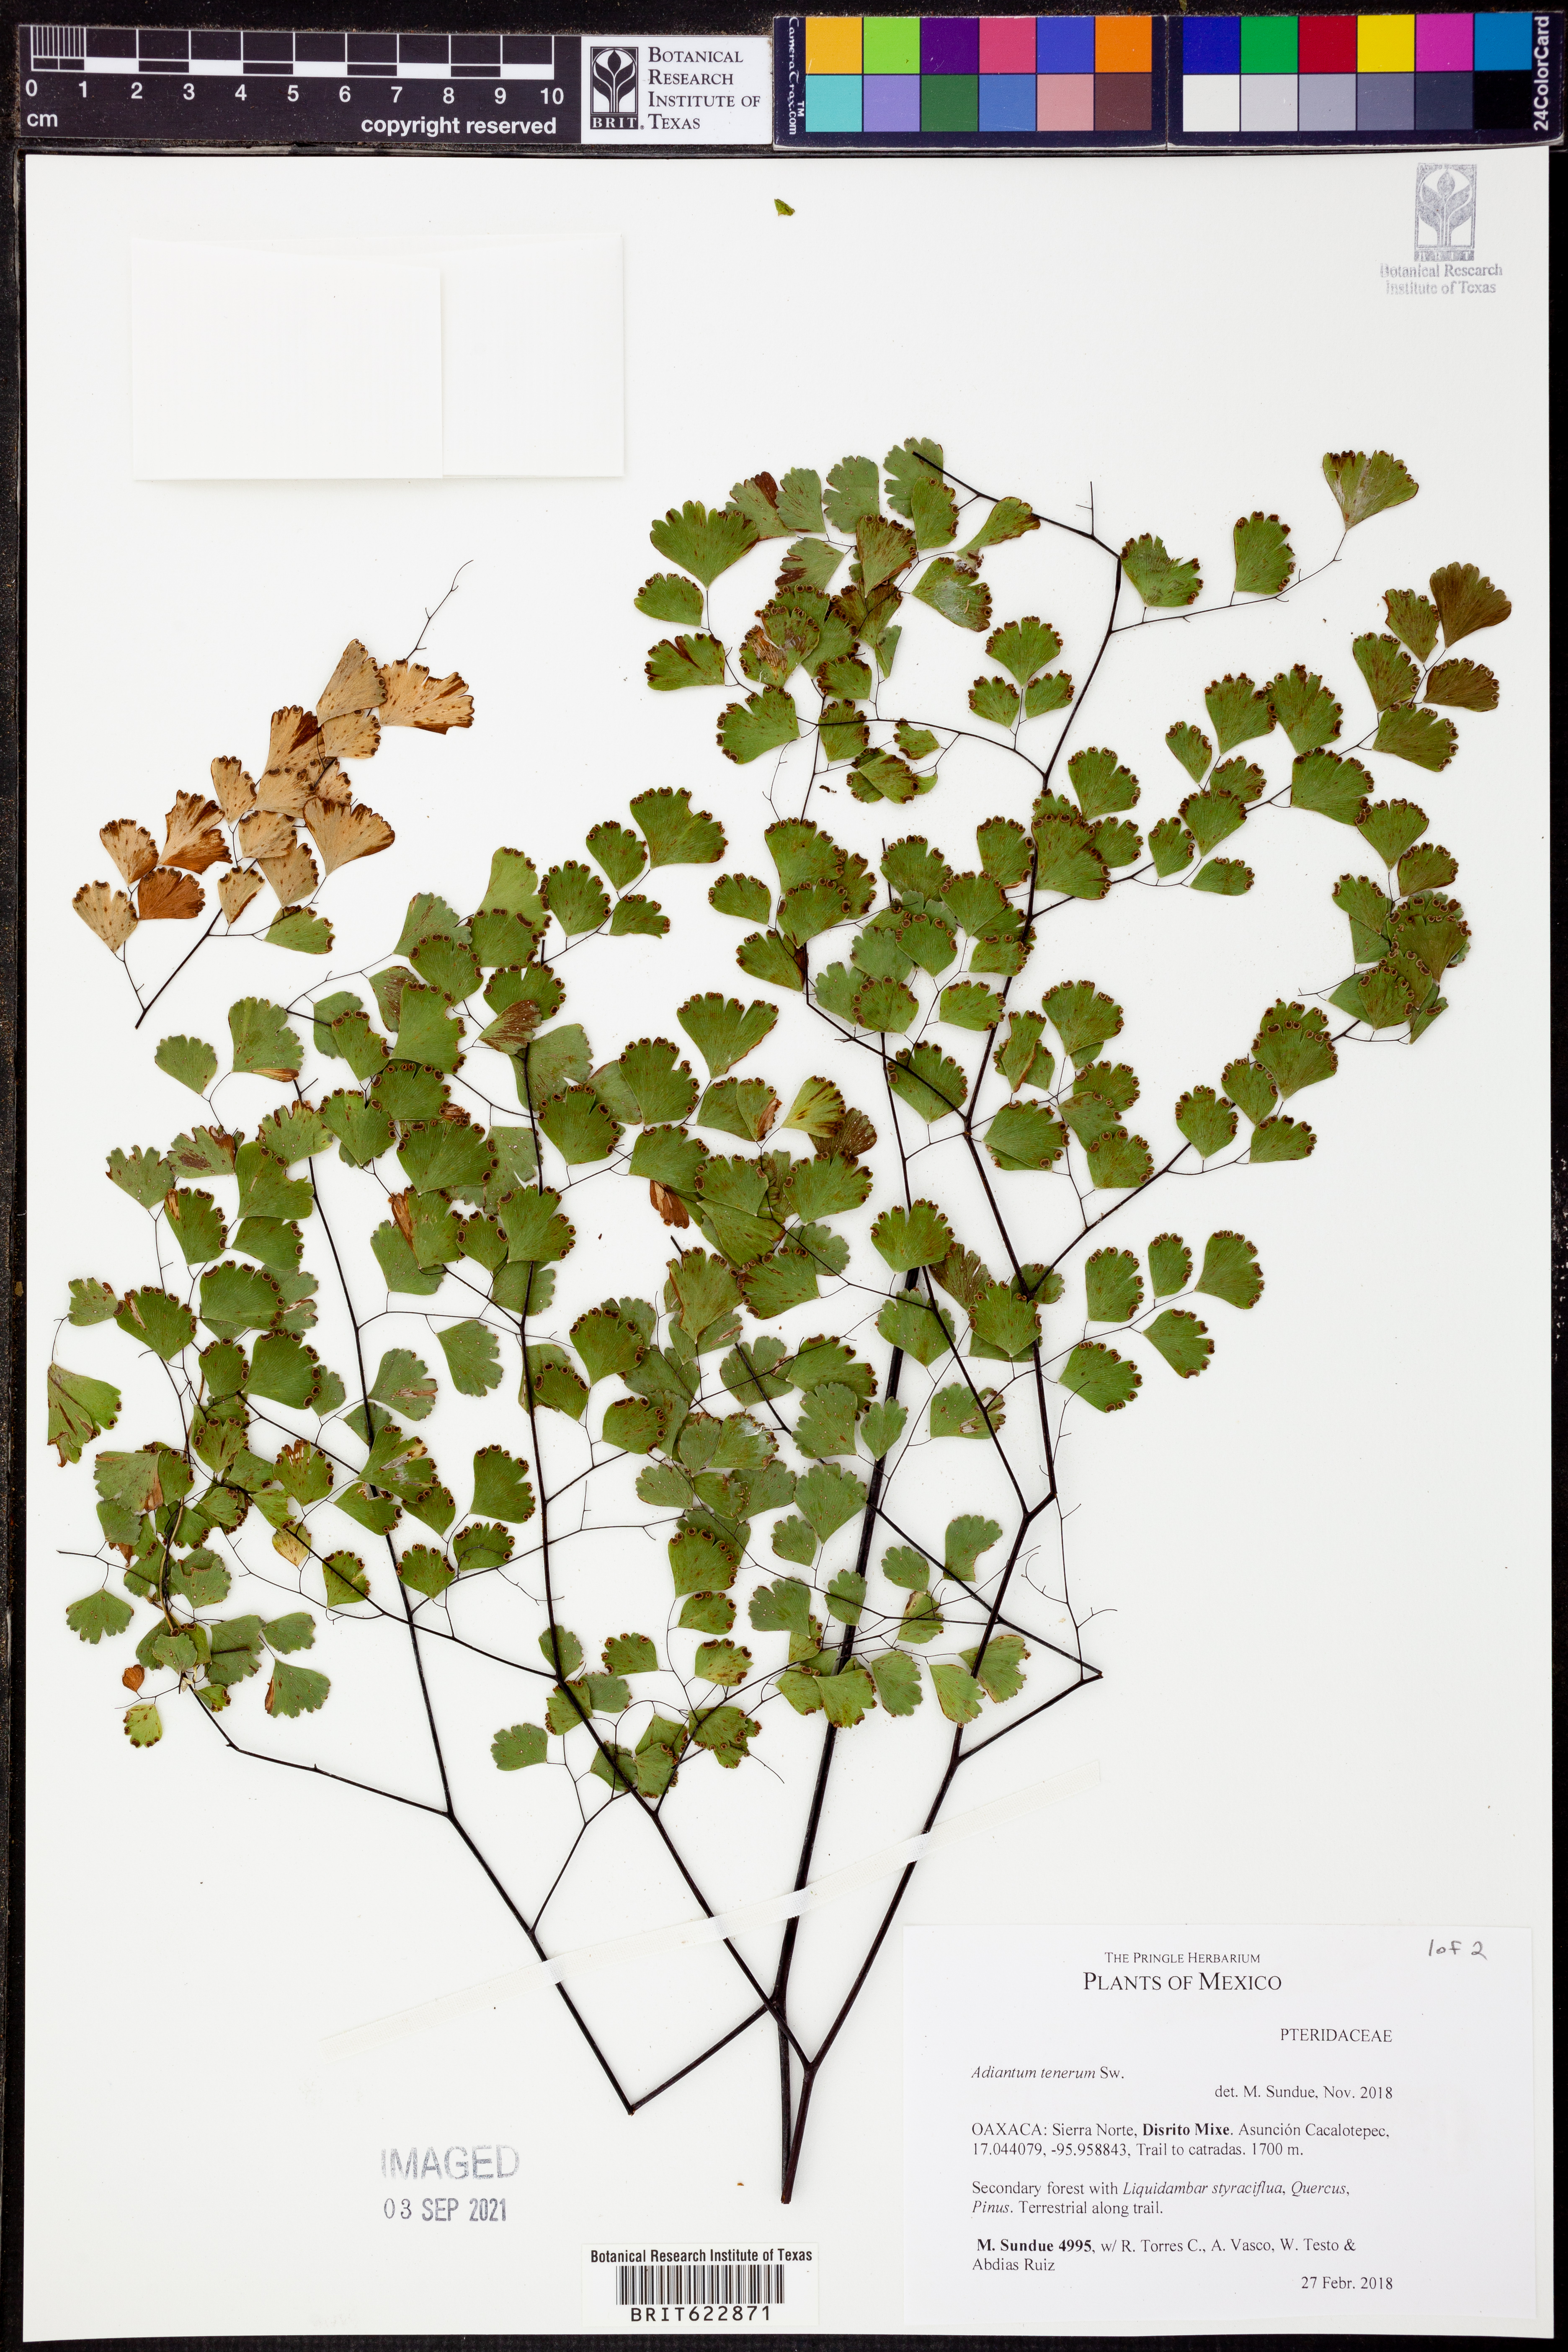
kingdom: Plantae
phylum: Tracheophyta
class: Polypodiopsida
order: Polypodiales
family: Pteridaceae
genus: Adiantum
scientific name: Adiantum tenerum
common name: Fan maidenhair
